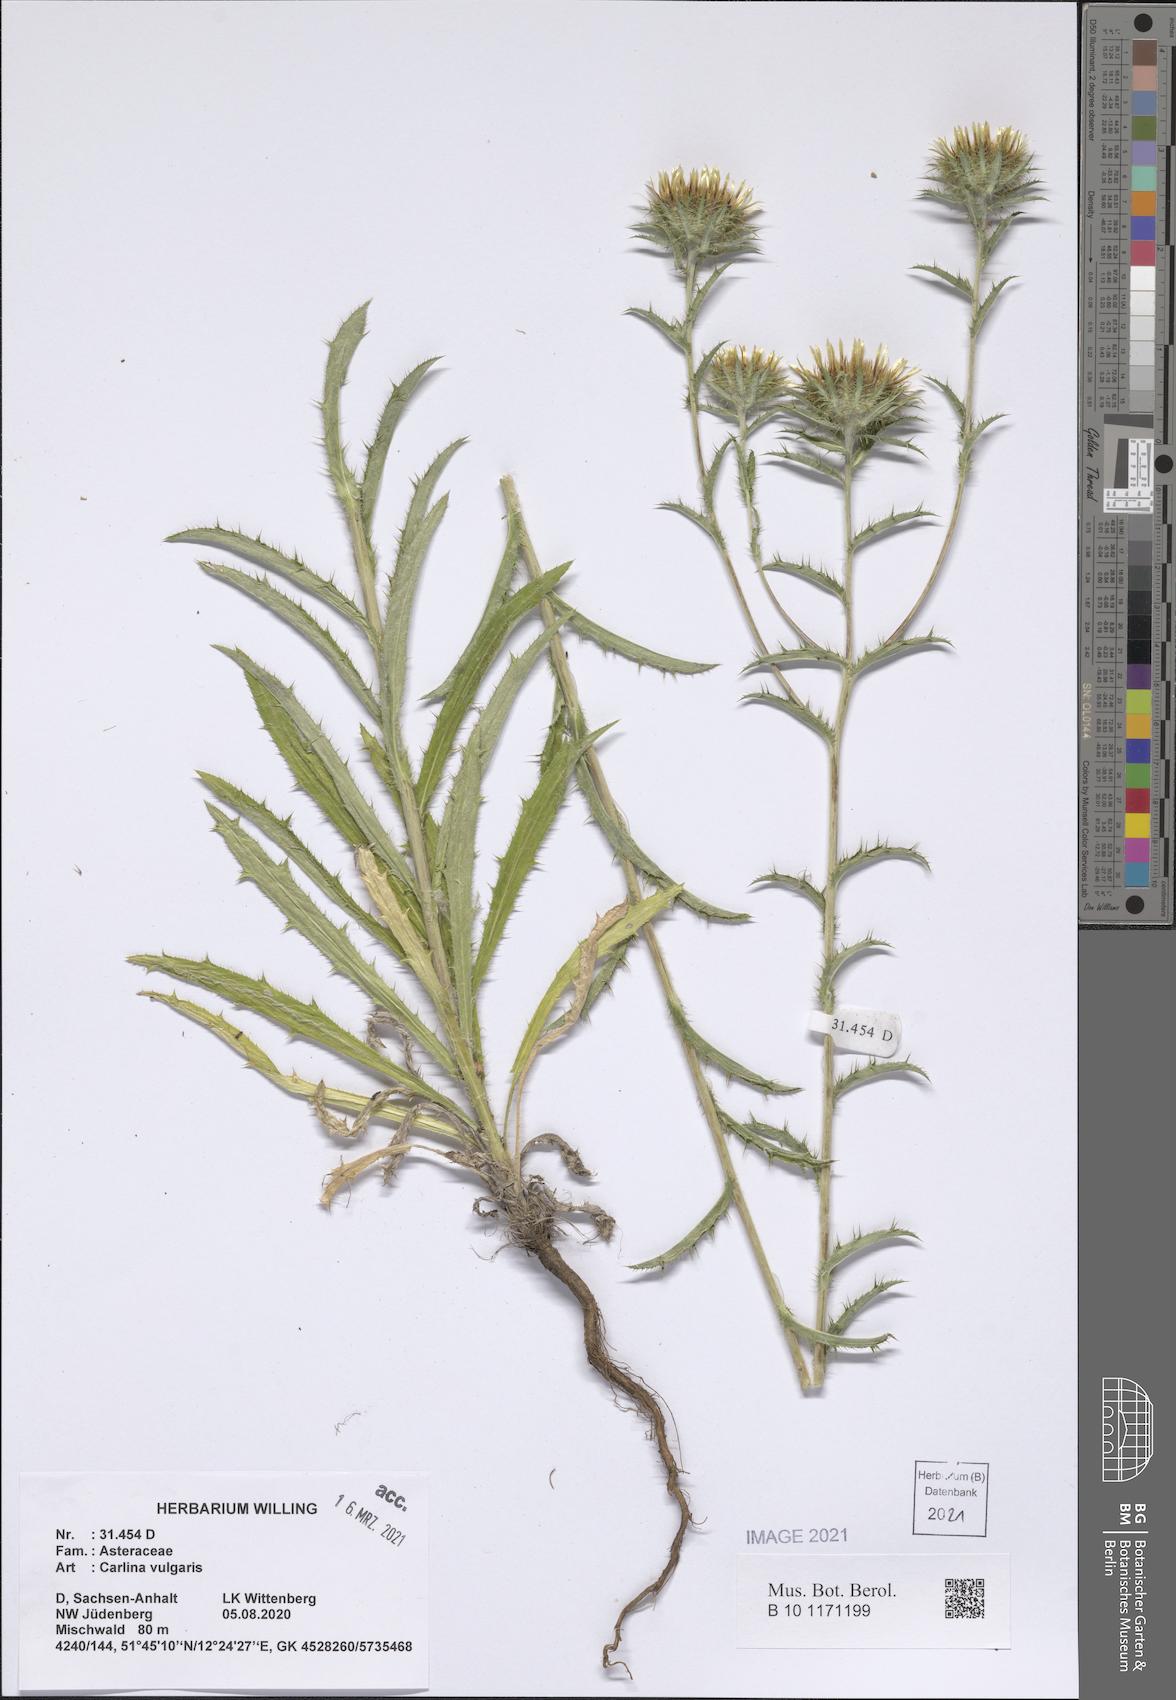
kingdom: Plantae
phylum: Tracheophyta
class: Magnoliopsida
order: Asterales
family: Asteraceae
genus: Carlina
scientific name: Carlina vulgaris
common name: Carline thistle
